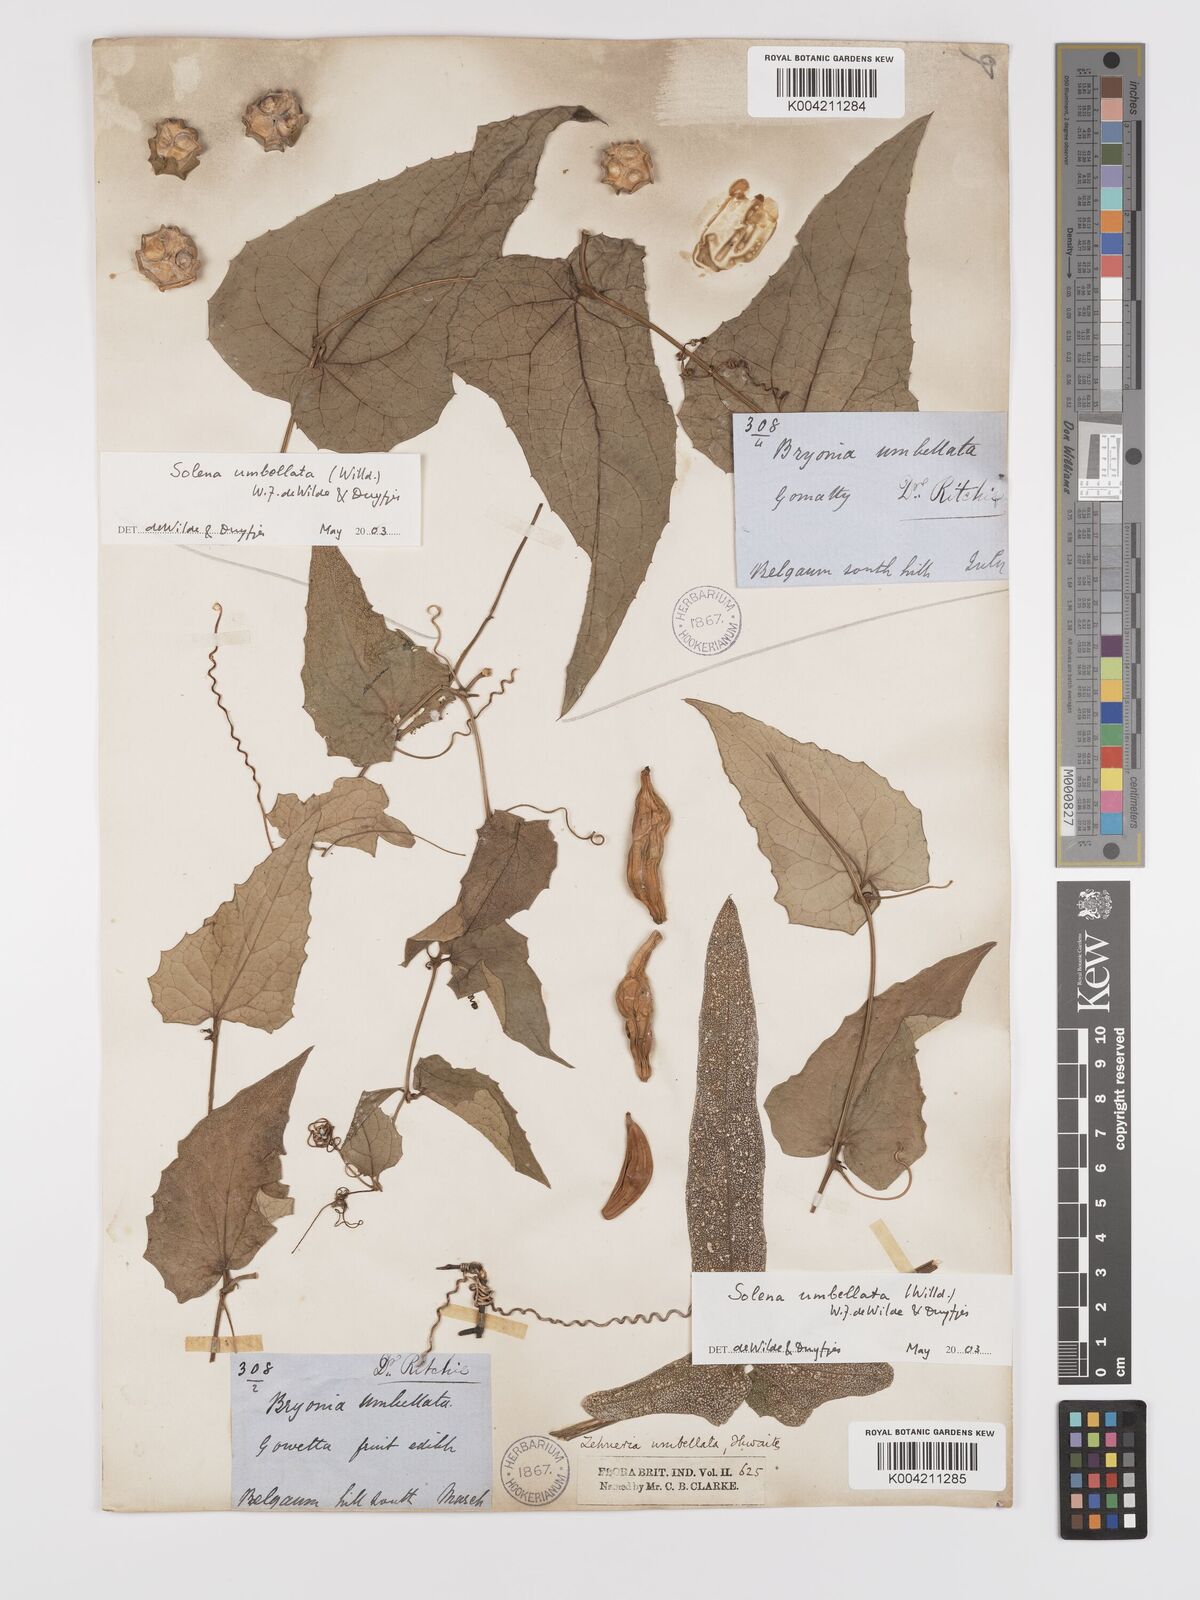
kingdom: Plantae
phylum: Tracheophyta
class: Magnoliopsida
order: Cucurbitales
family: Cucurbitaceae
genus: Solena
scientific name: Solena amplexicaulis
